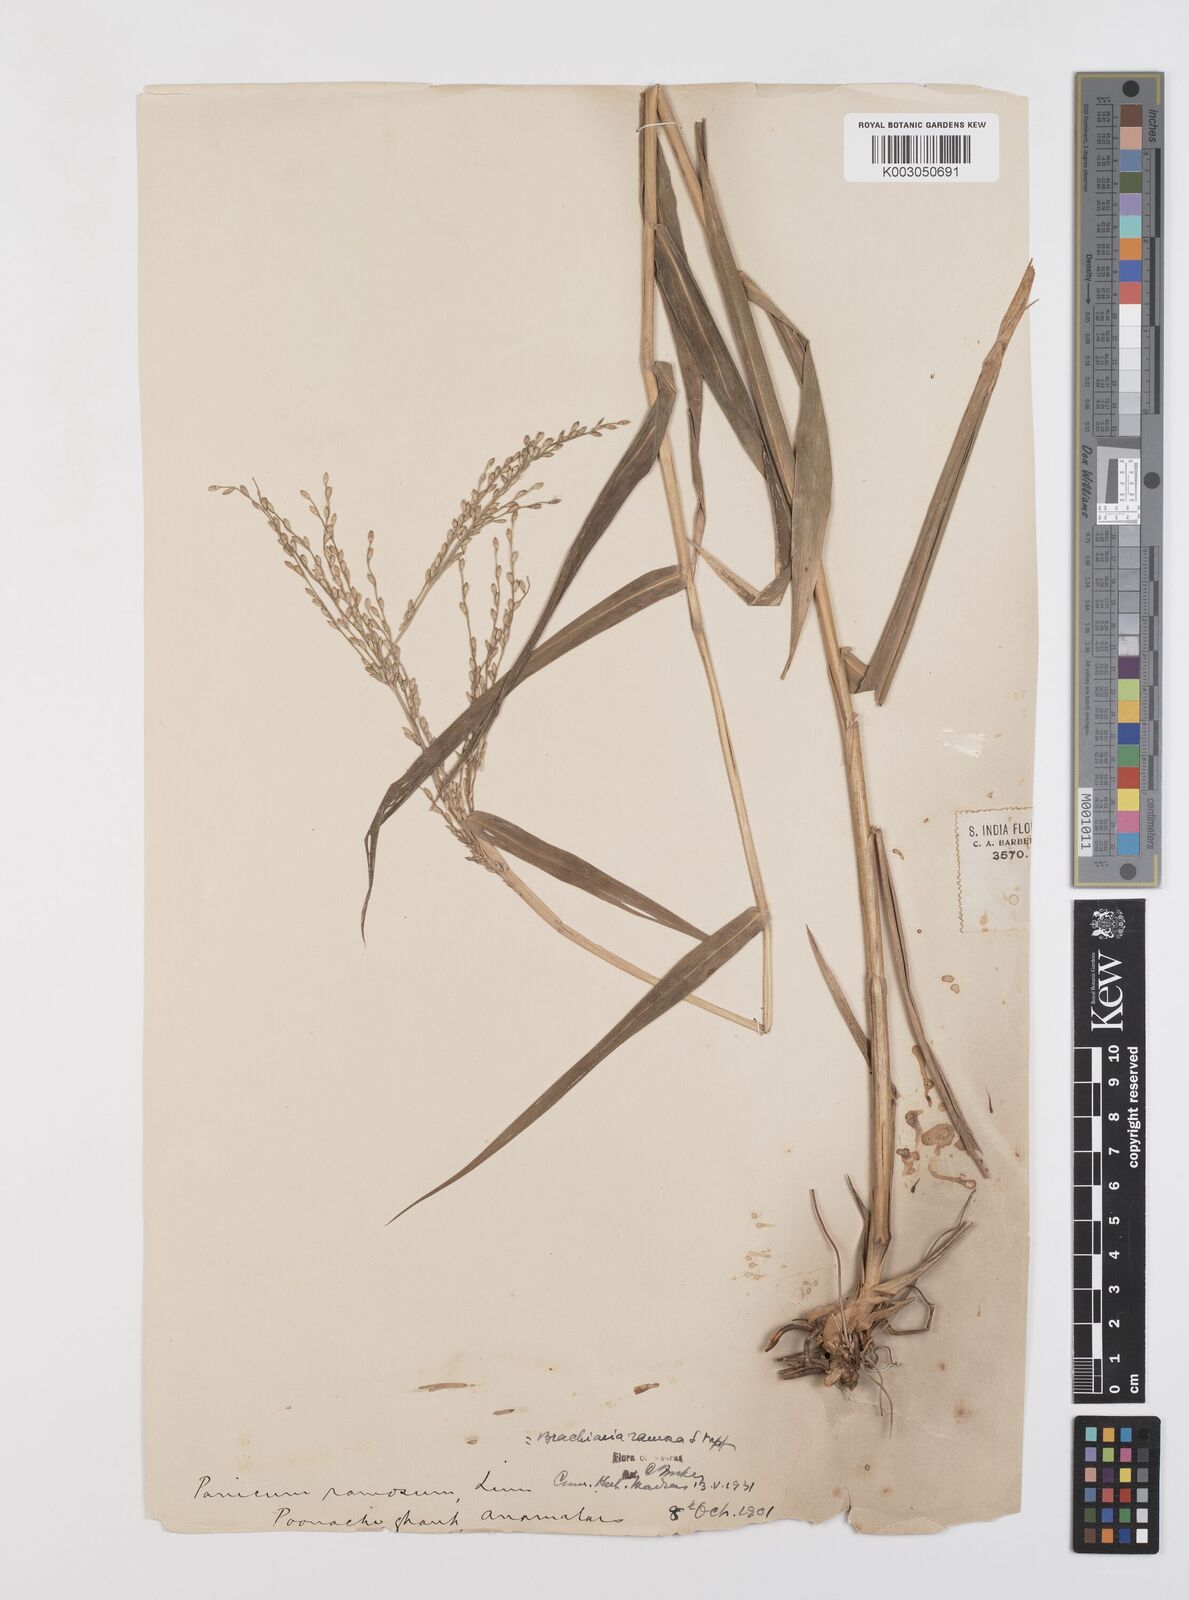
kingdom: Plantae
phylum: Tracheophyta
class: Liliopsida
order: Poales
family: Poaceae
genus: Urochloa
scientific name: Urochloa Brachiaria semiverticillata
